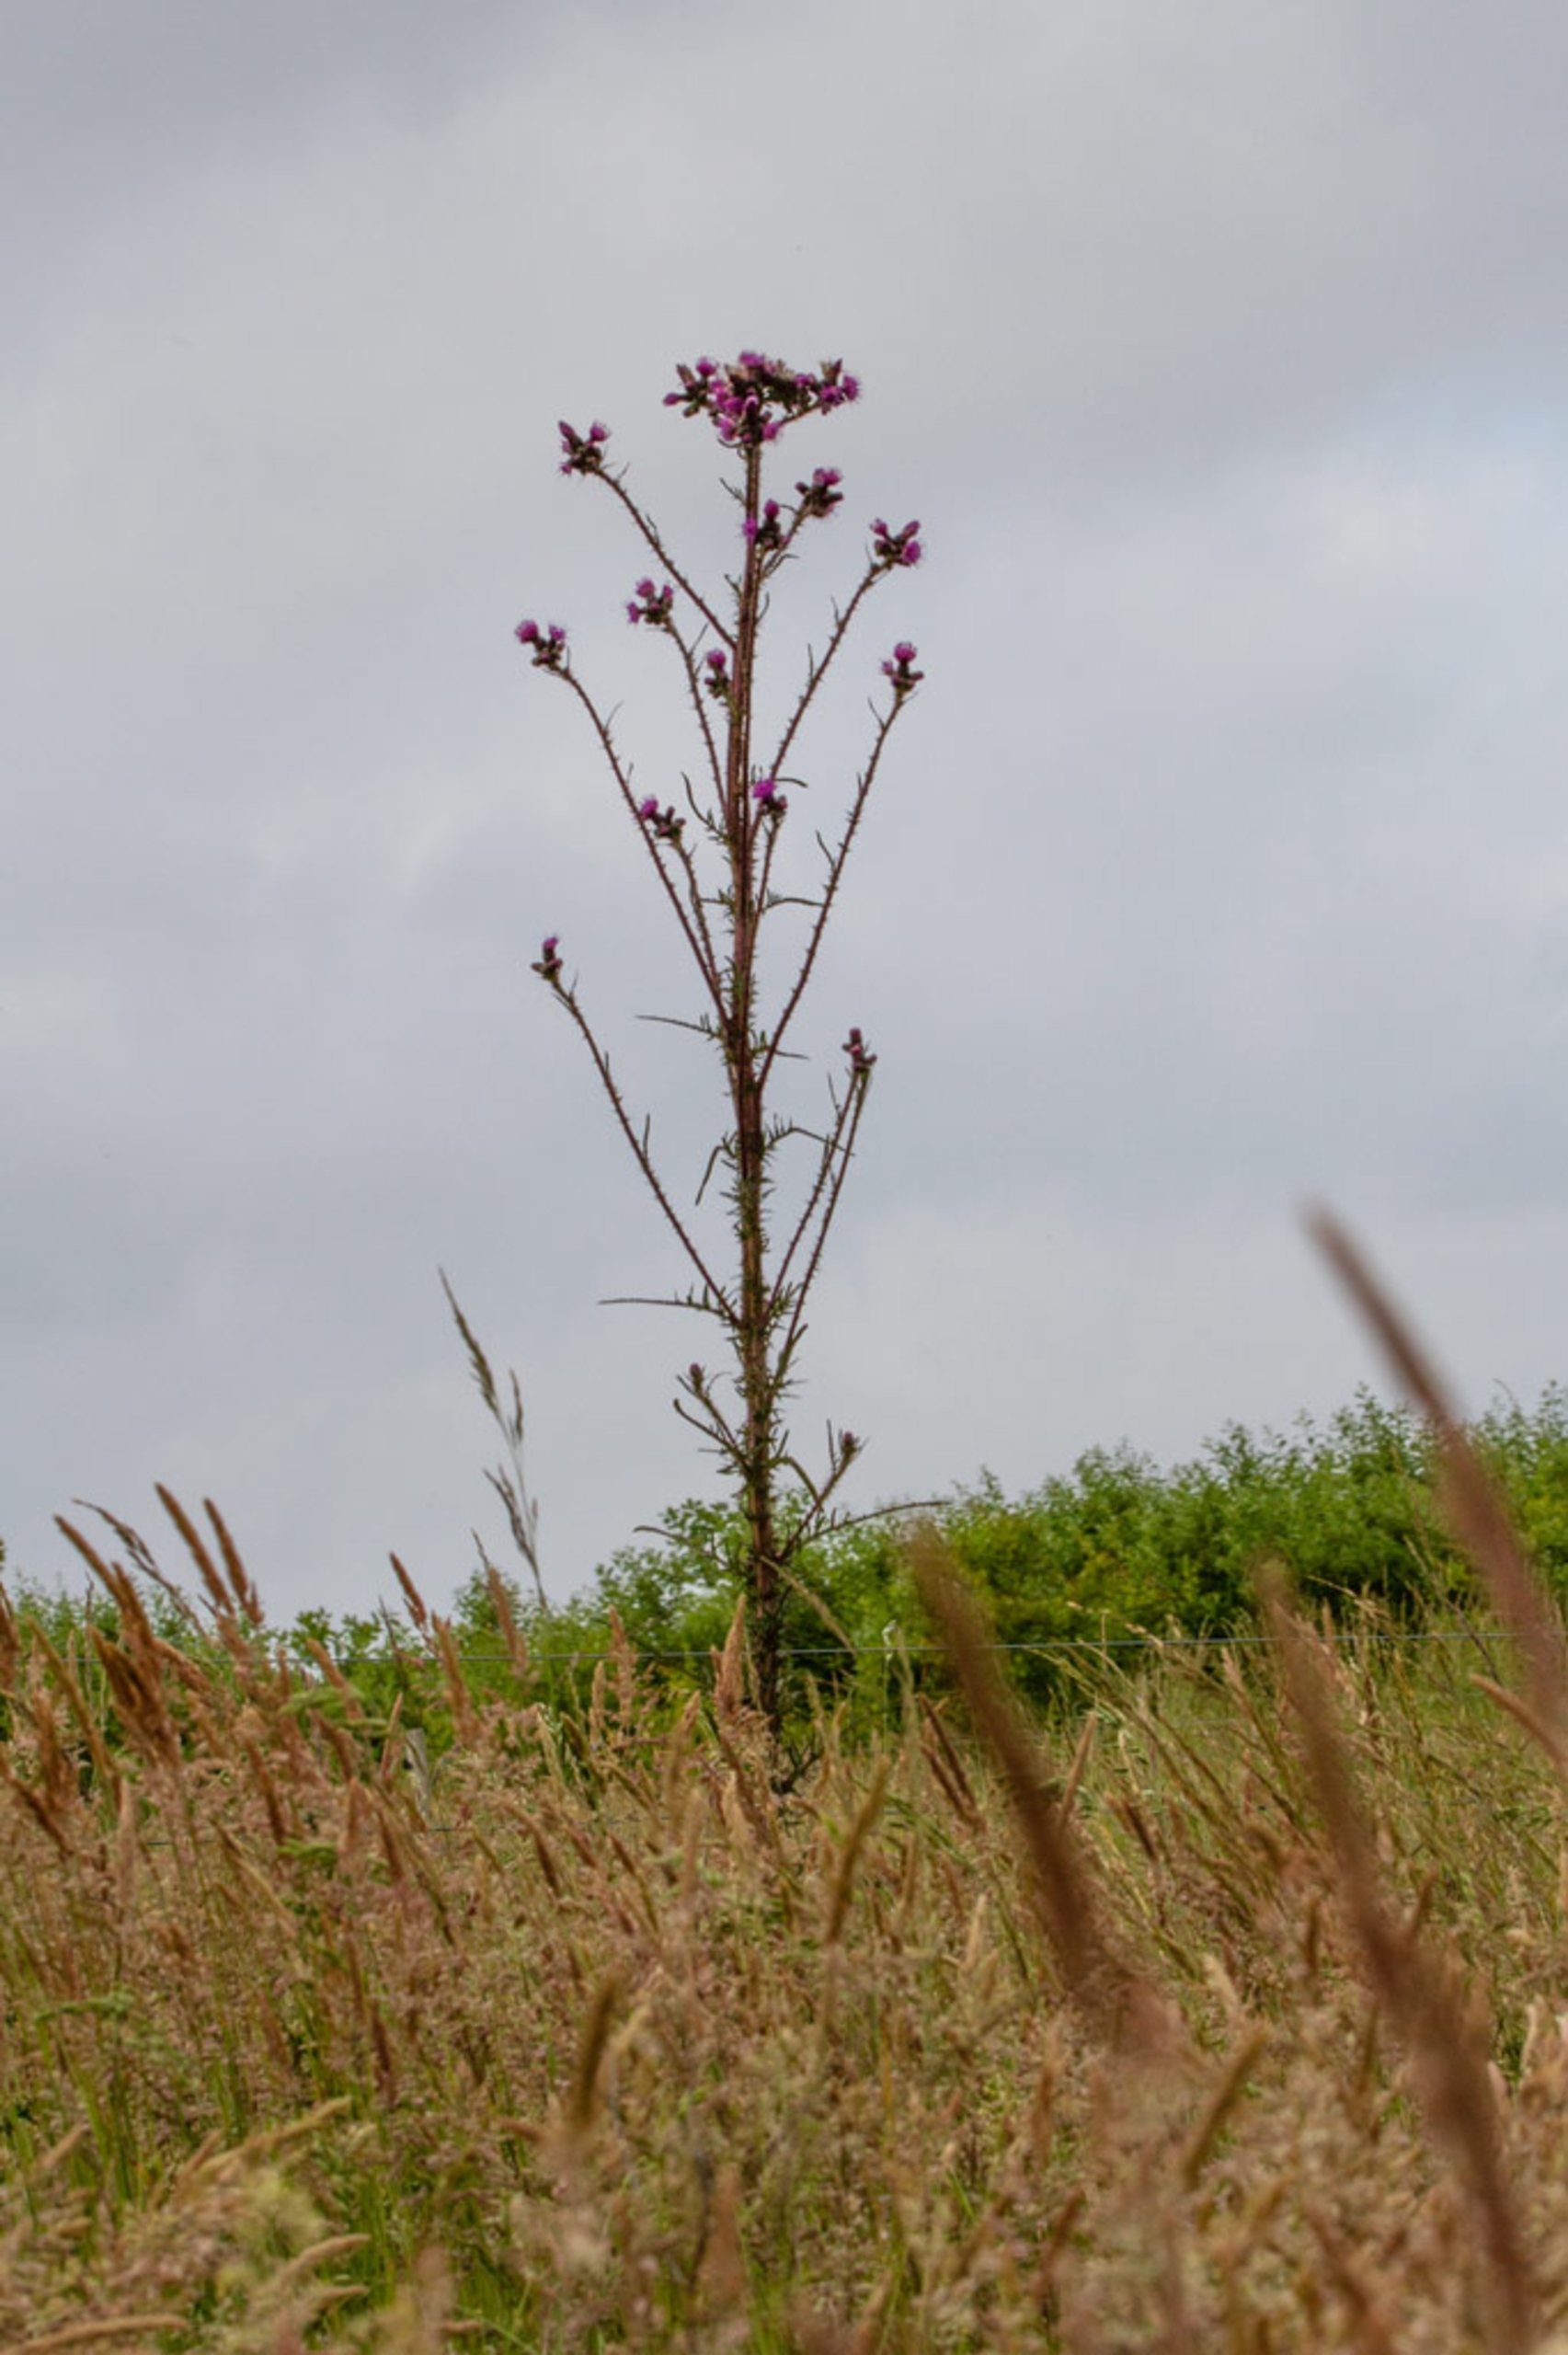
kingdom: Plantae
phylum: Tracheophyta
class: Magnoliopsida
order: Asterales
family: Asteraceae
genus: Cirsium
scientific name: Cirsium palustre
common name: Kær-tidsel
